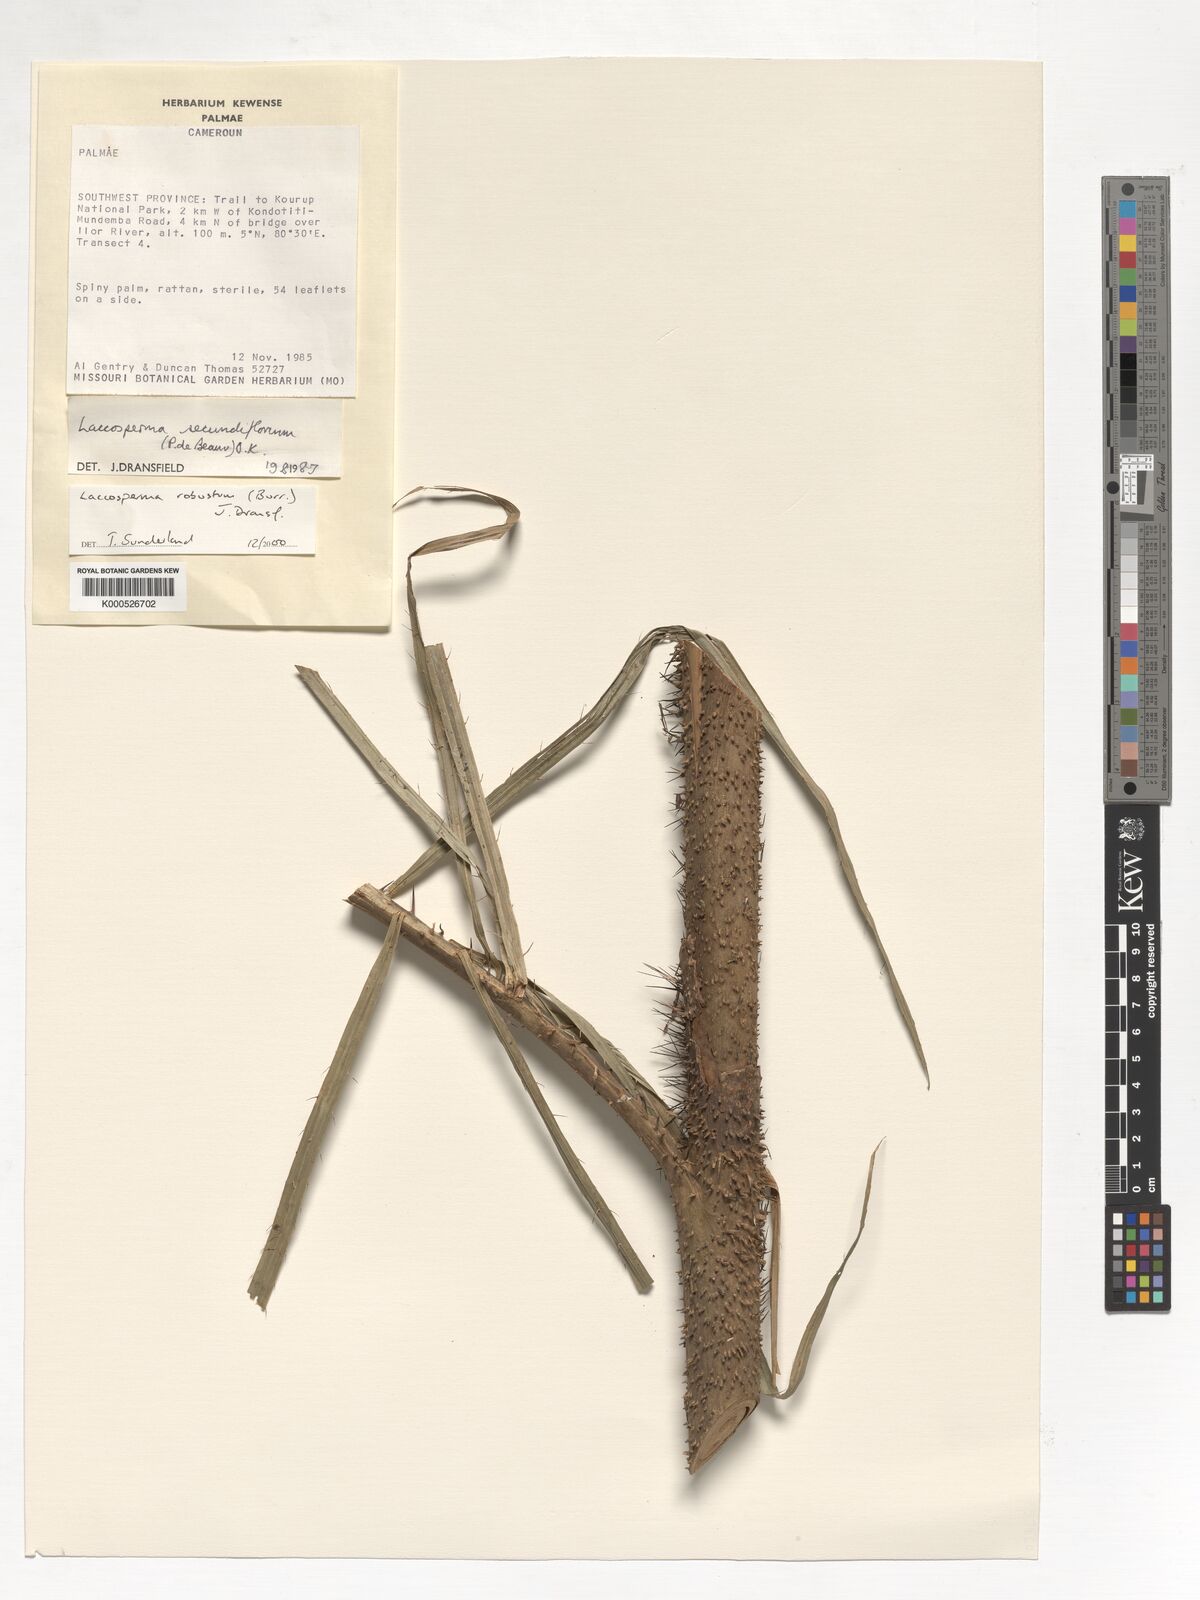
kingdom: Plantae
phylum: Tracheophyta
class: Liliopsida
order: Arecales
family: Arecaceae
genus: Laccosperma
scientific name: Laccosperma robustum
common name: Rattan
